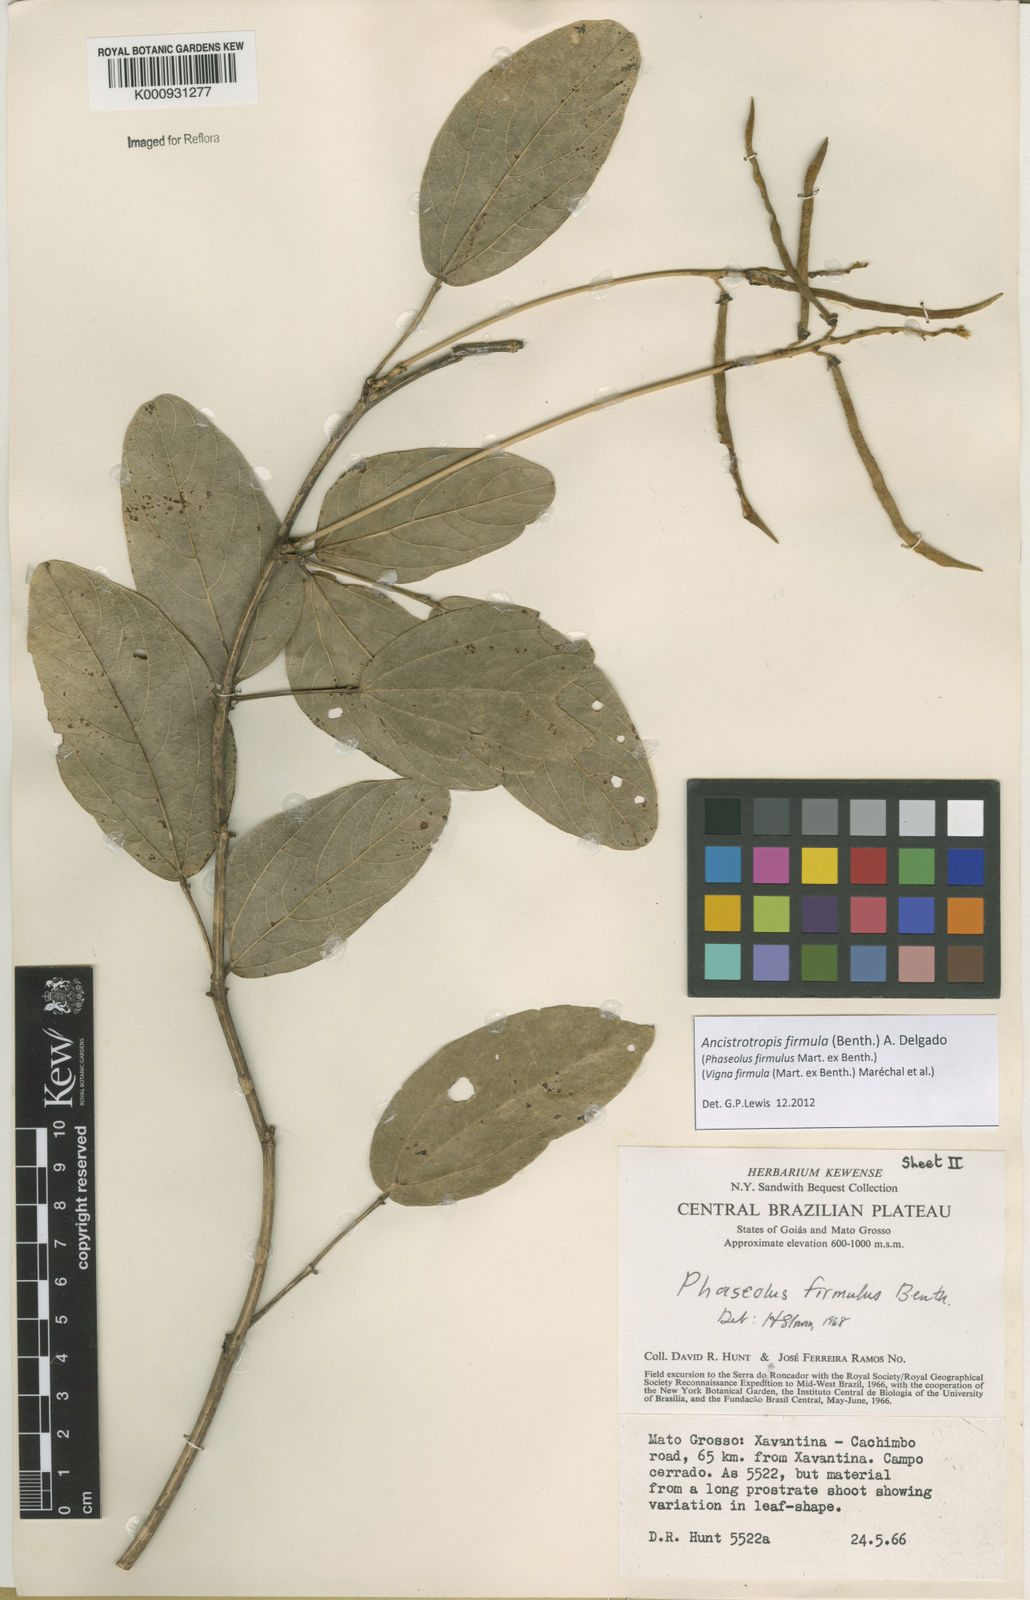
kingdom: Plantae
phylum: Tracheophyta
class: Magnoliopsida
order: Fabales
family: Fabaceae
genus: Ancistrotropis
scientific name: Ancistrotropis firmula
